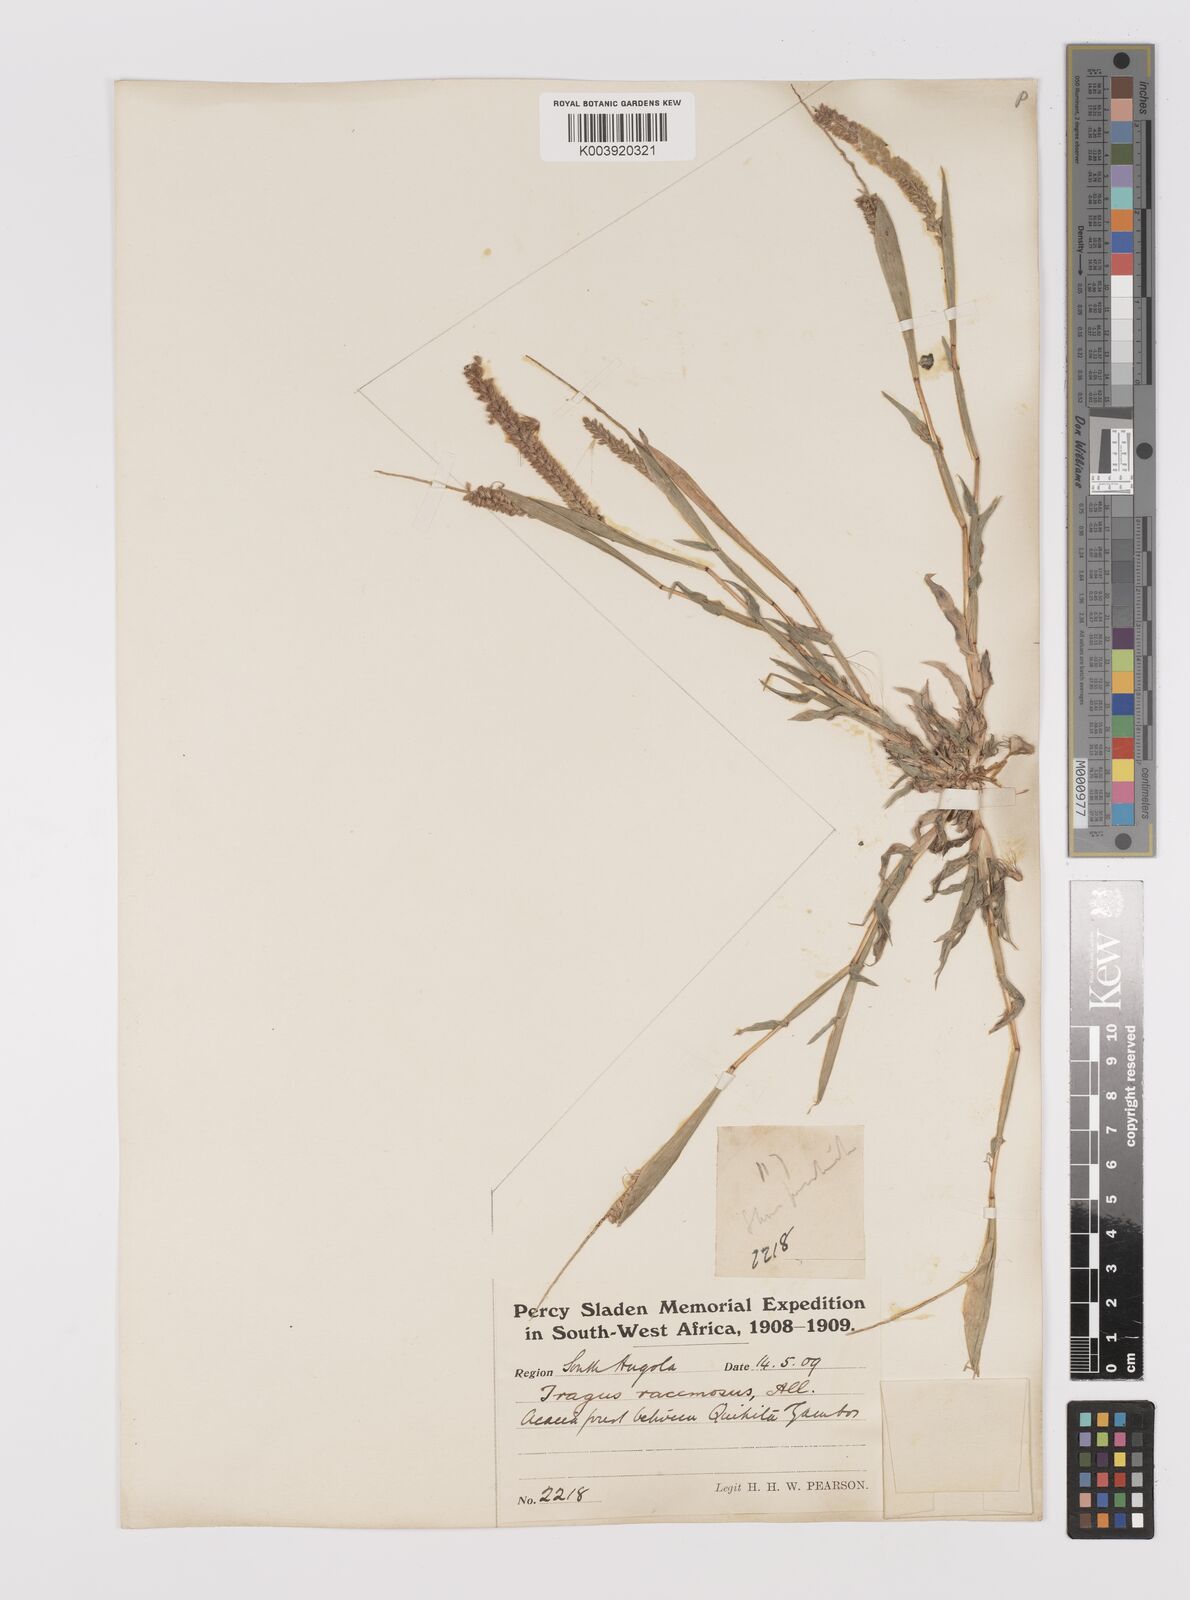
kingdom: Plantae
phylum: Tracheophyta
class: Liliopsida
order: Poales
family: Poaceae
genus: Tragus
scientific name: Tragus berteronianus
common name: African bur-grass
